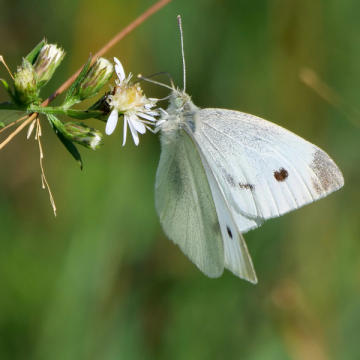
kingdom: Animalia
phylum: Arthropoda
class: Insecta
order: Lepidoptera
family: Pieridae
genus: Pieris
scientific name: Pieris rapae
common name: Cabbage White
